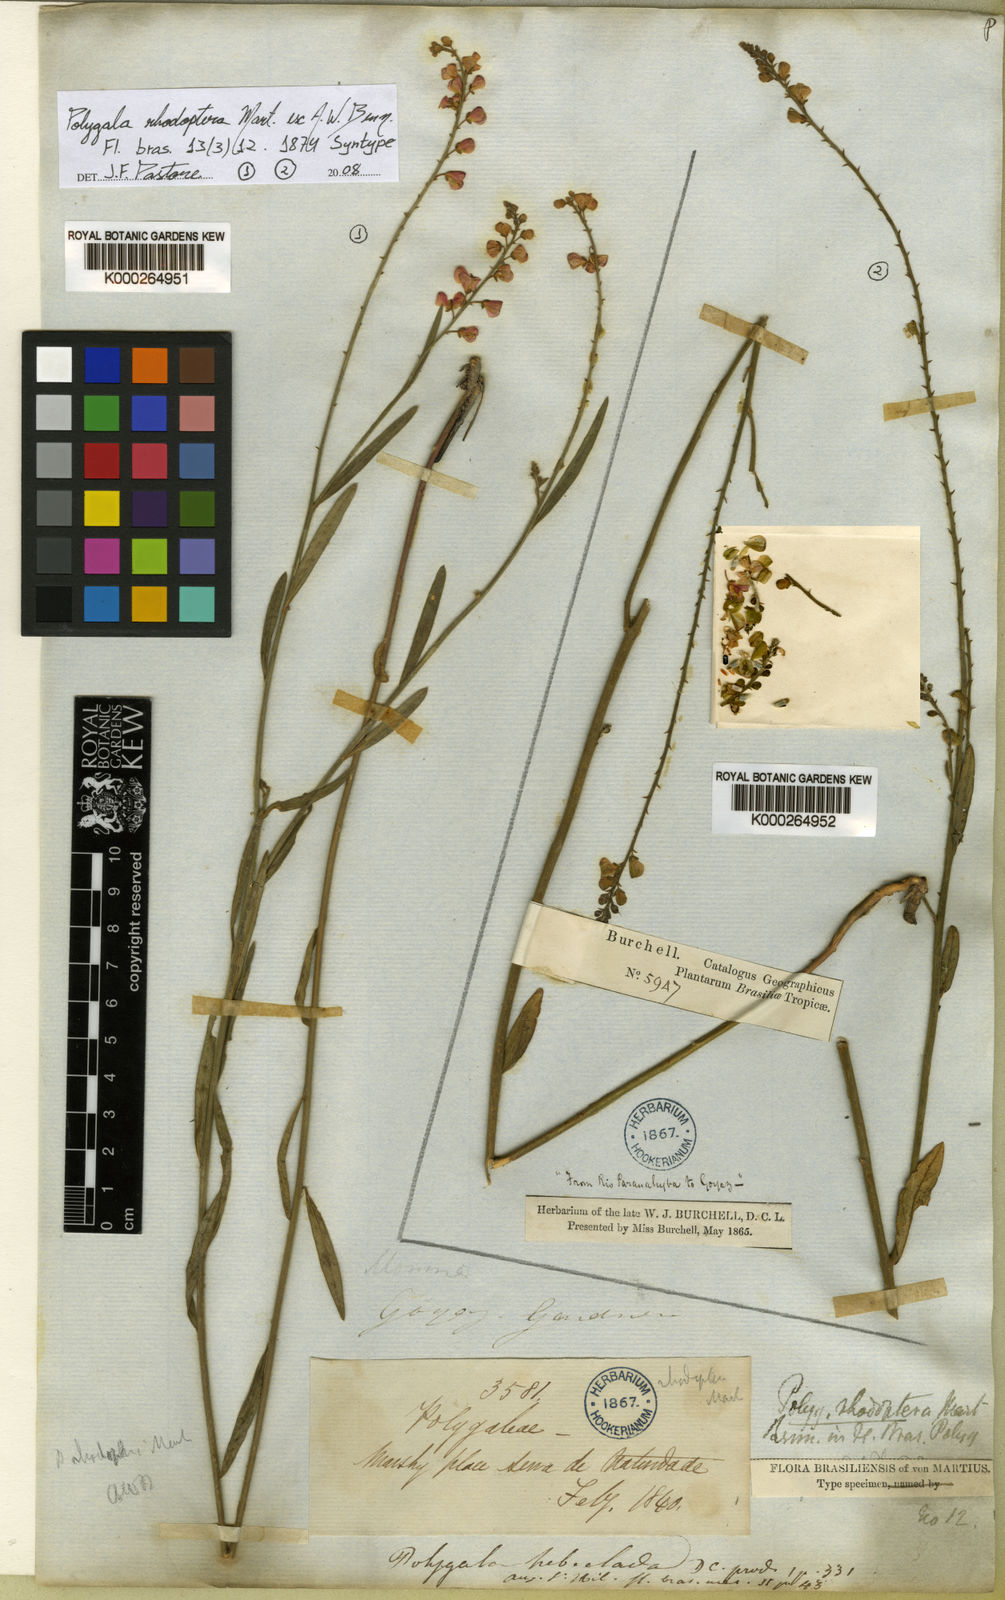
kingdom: Plantae
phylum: Tracheophyta
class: Magnoliopsida
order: Fabales
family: Polygalaceae
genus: Asemeia
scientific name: Asemeia rhodoptera
